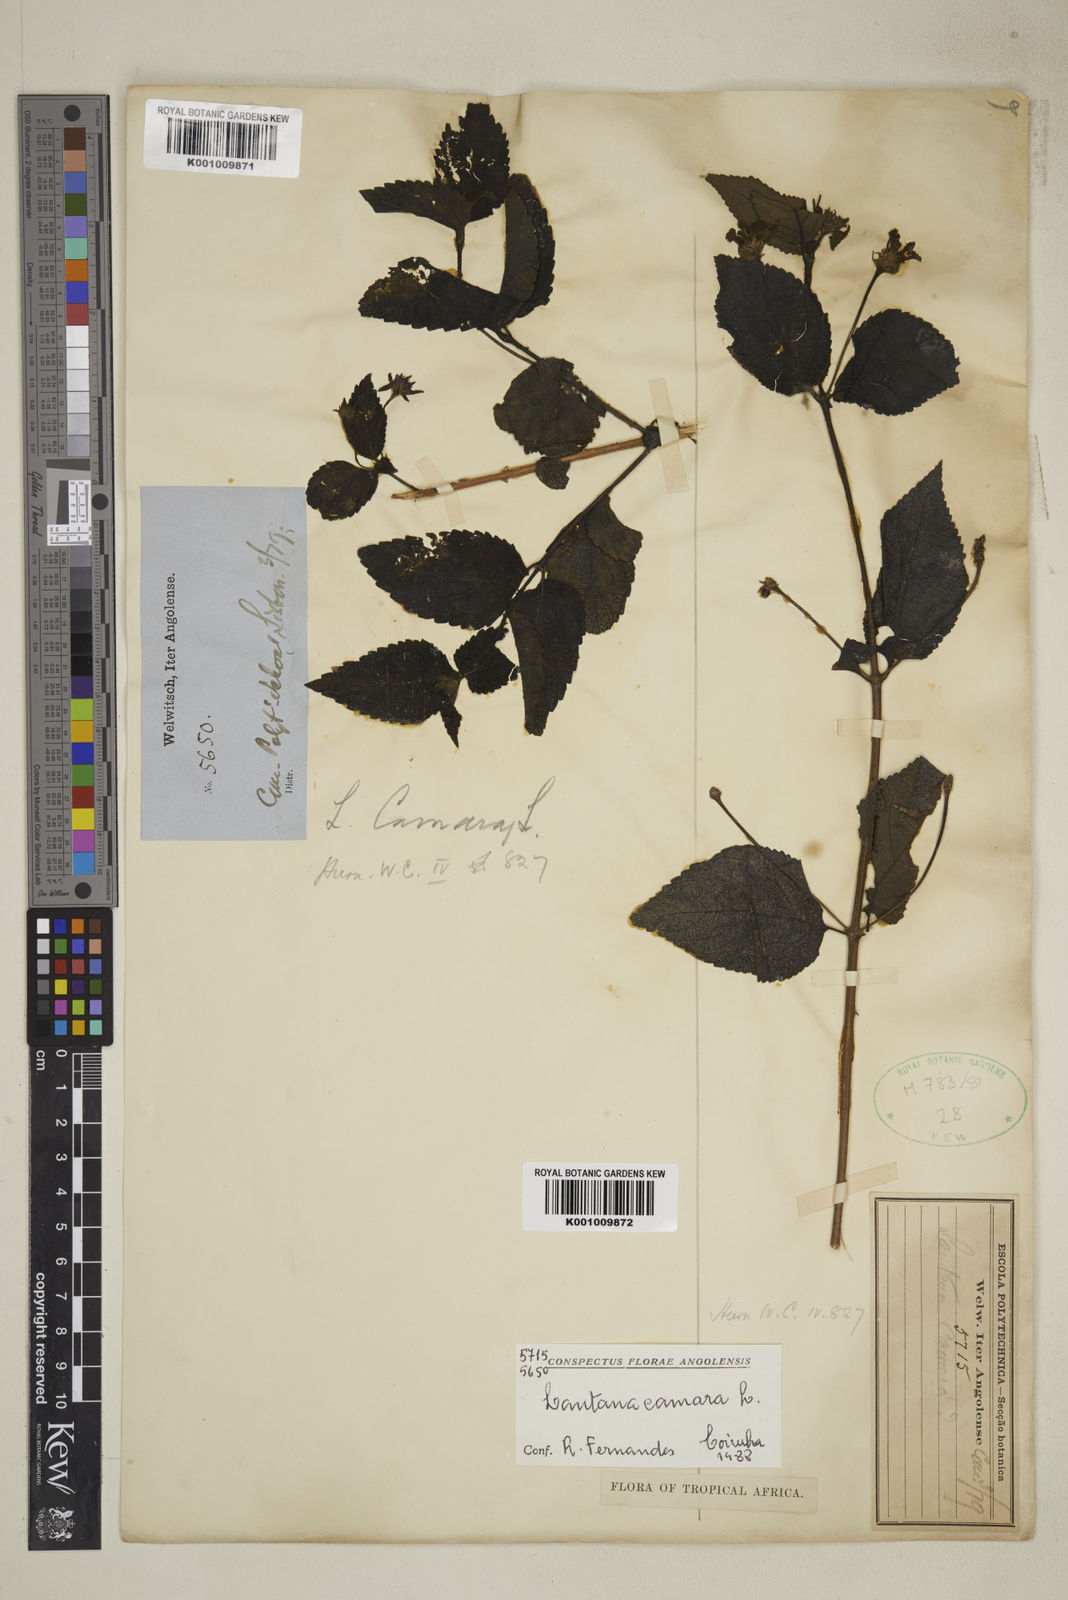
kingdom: Plantae
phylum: Tracheophyta
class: Magnoliopsida
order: Lamiales
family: Verbenaceae
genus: Lantana
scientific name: Lantana camara
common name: Lantana
